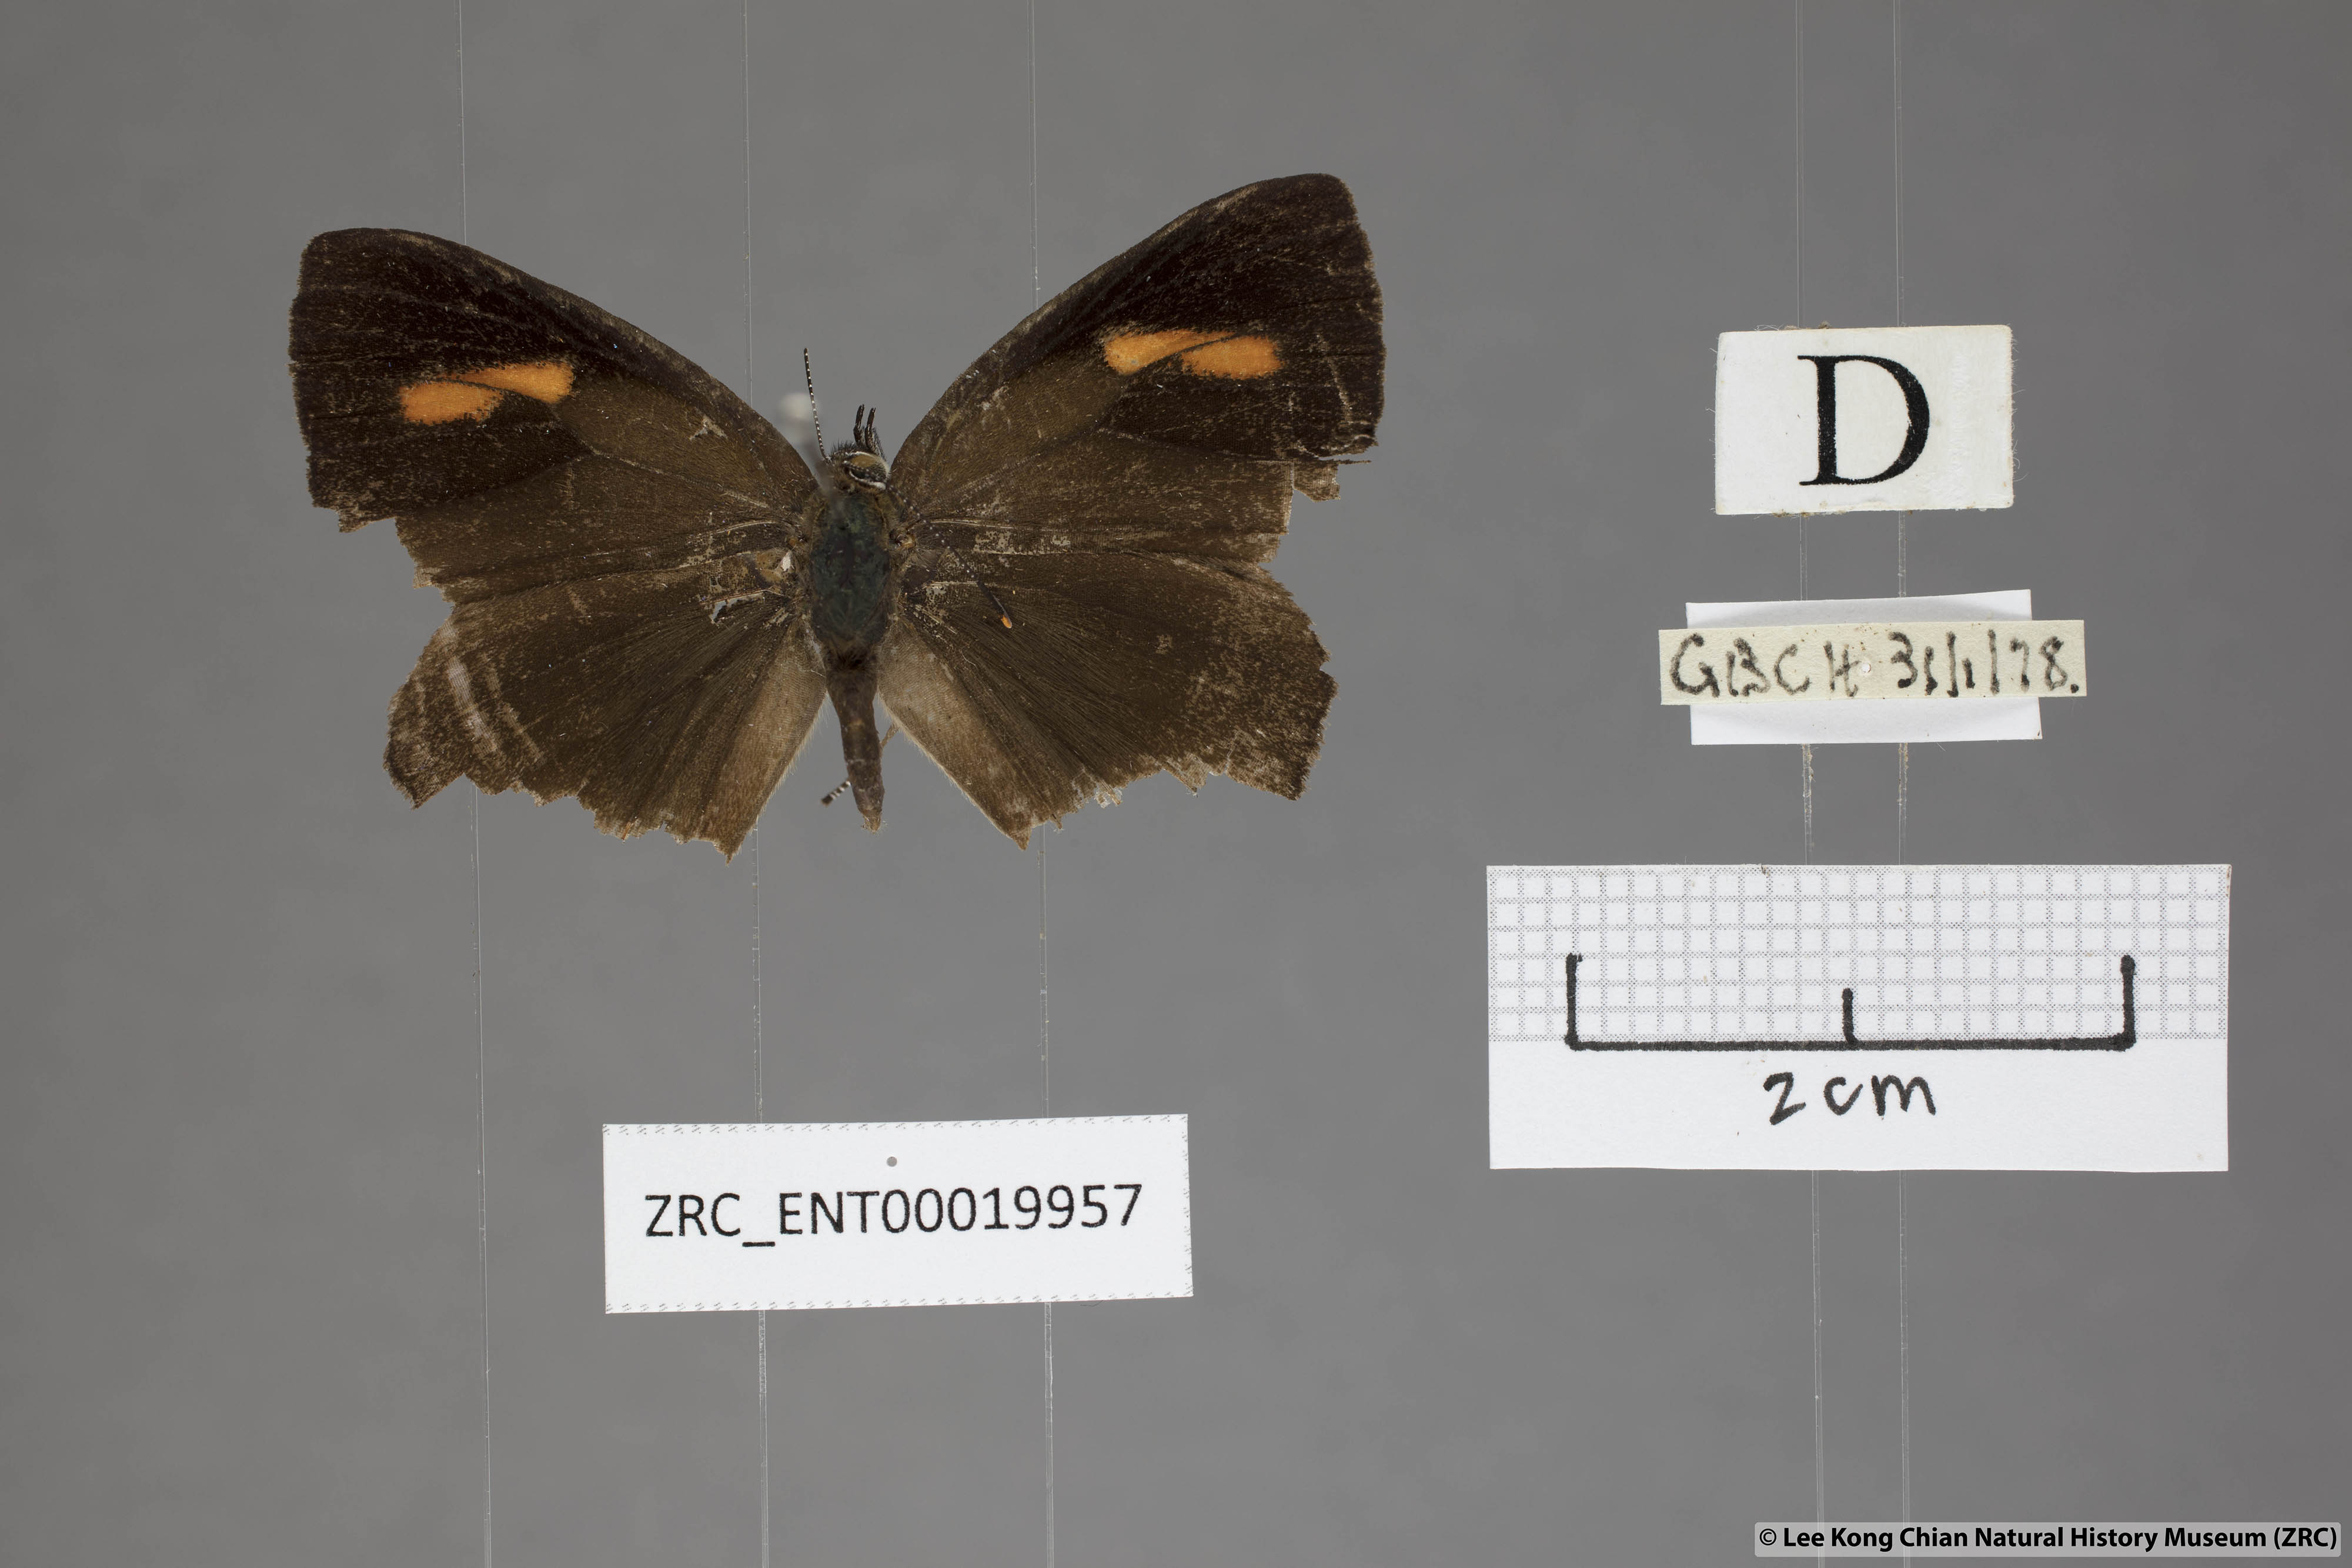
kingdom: Animalia
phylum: Arthropoda
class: Insecta
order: Lepidoptera
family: Lycaenidae
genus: Austrozephyrus
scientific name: Austrozephyrus absolon
